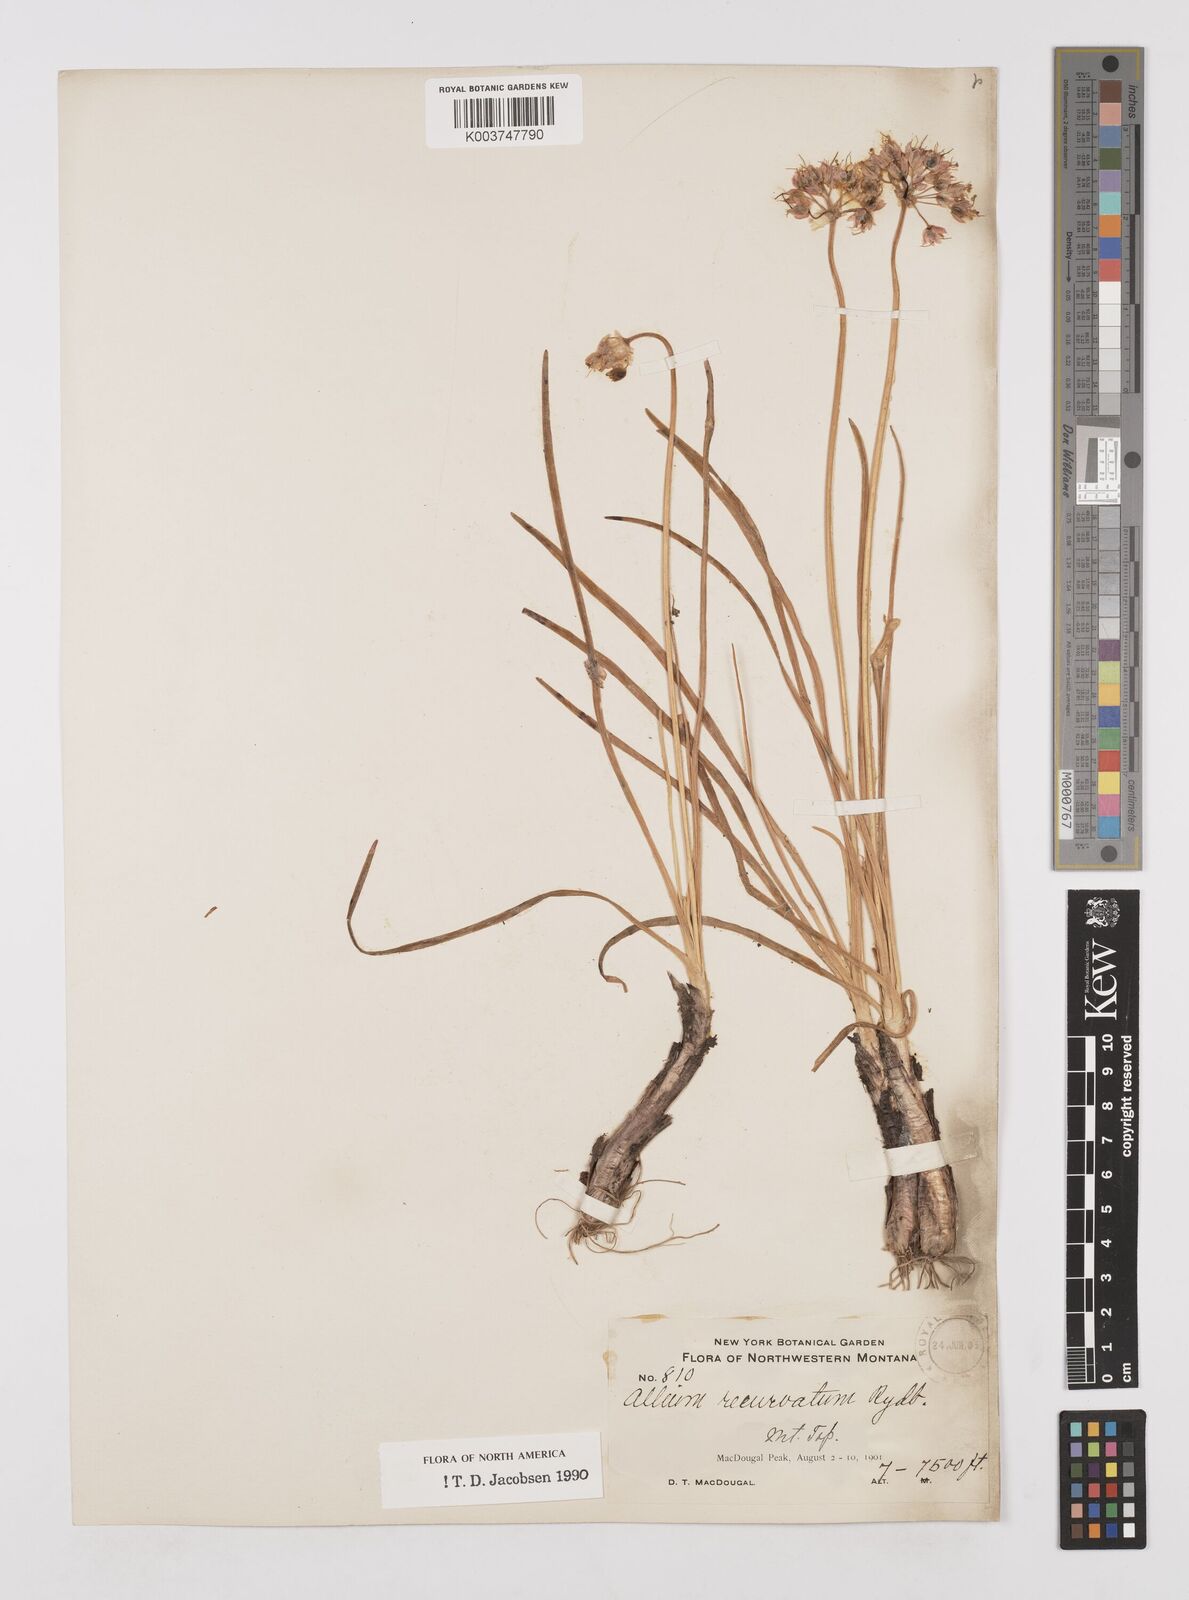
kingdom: Plantae
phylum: Tracheophyta
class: Liliopsida
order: Asparagales
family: Amaryllidaceae
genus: Allium
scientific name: Allium cernuum
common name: Nodding onion
